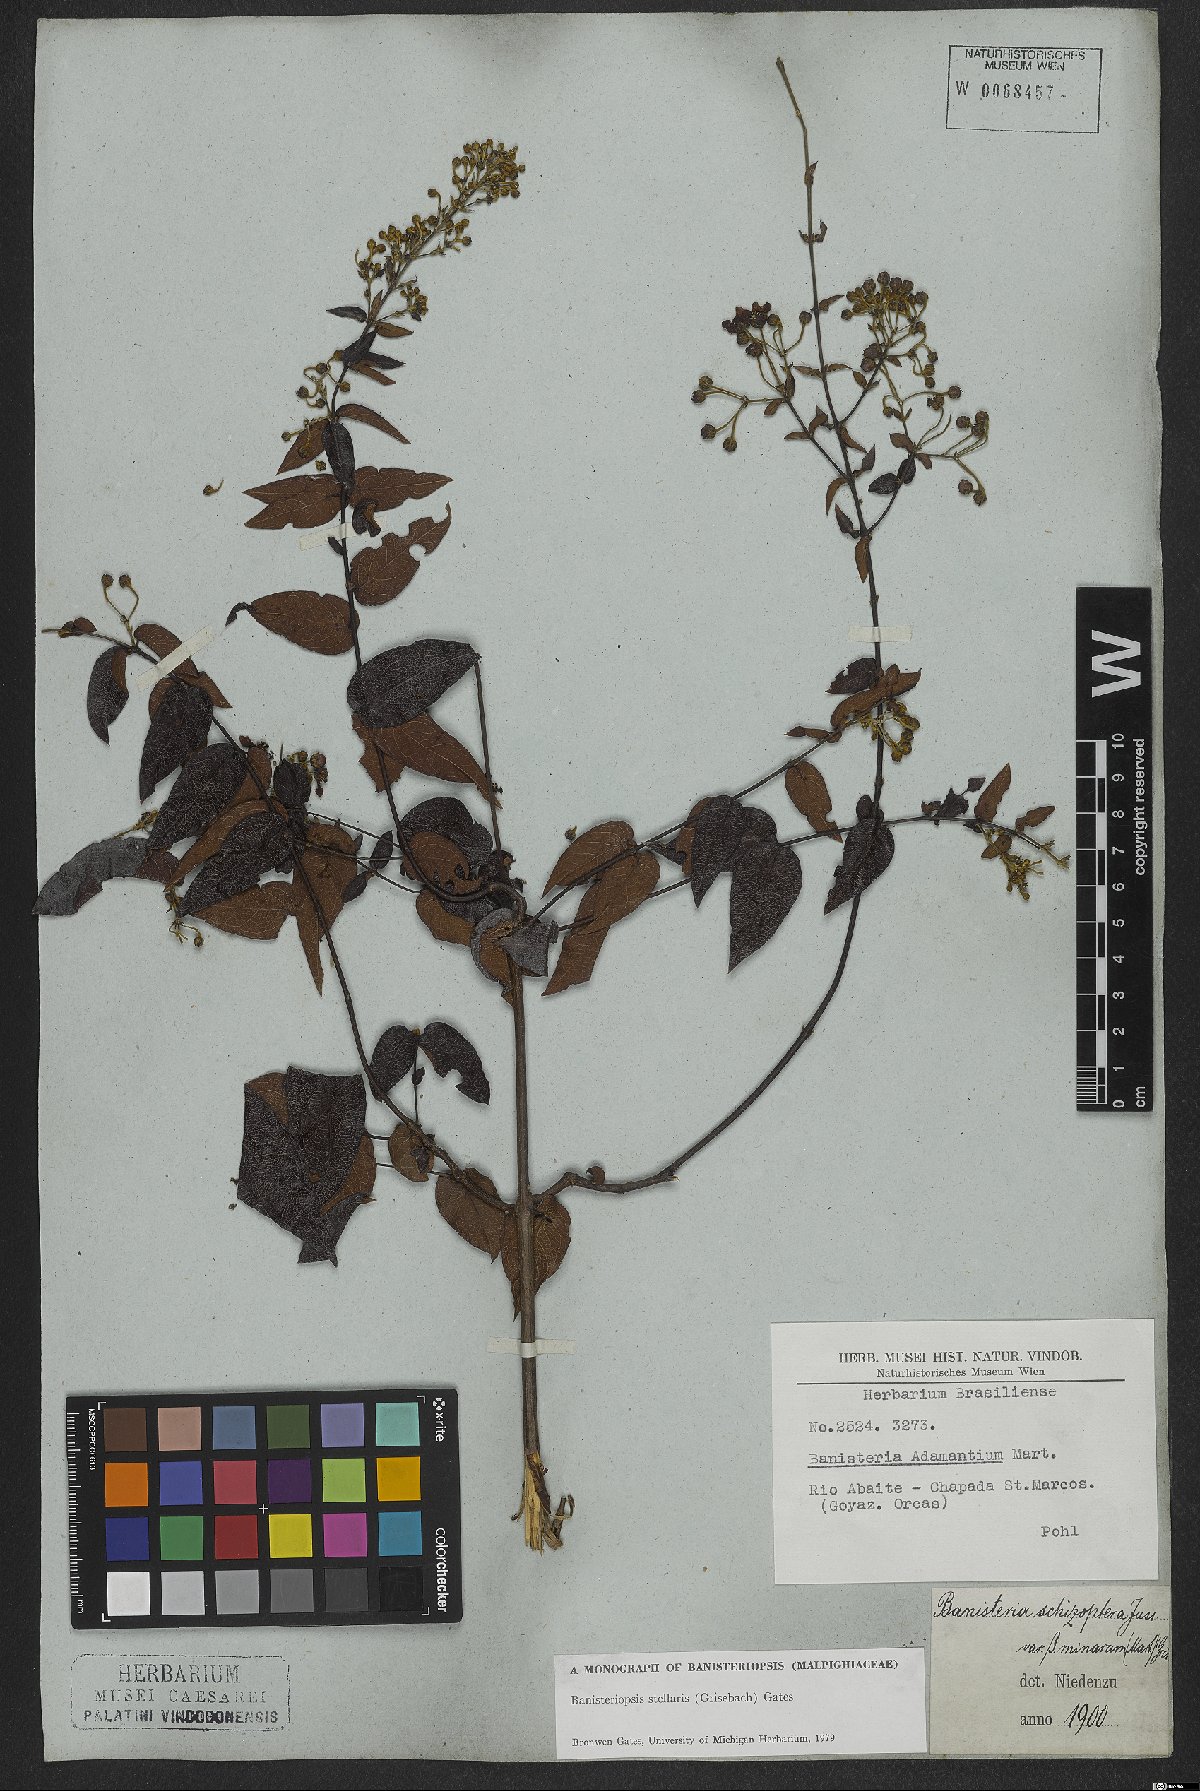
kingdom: Plantae
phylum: Tracheophyta
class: Magnoliopsida
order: Malpighiales
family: Malpighiaceae
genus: Banisteriopsis
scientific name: Banisteriopsis stellaris
